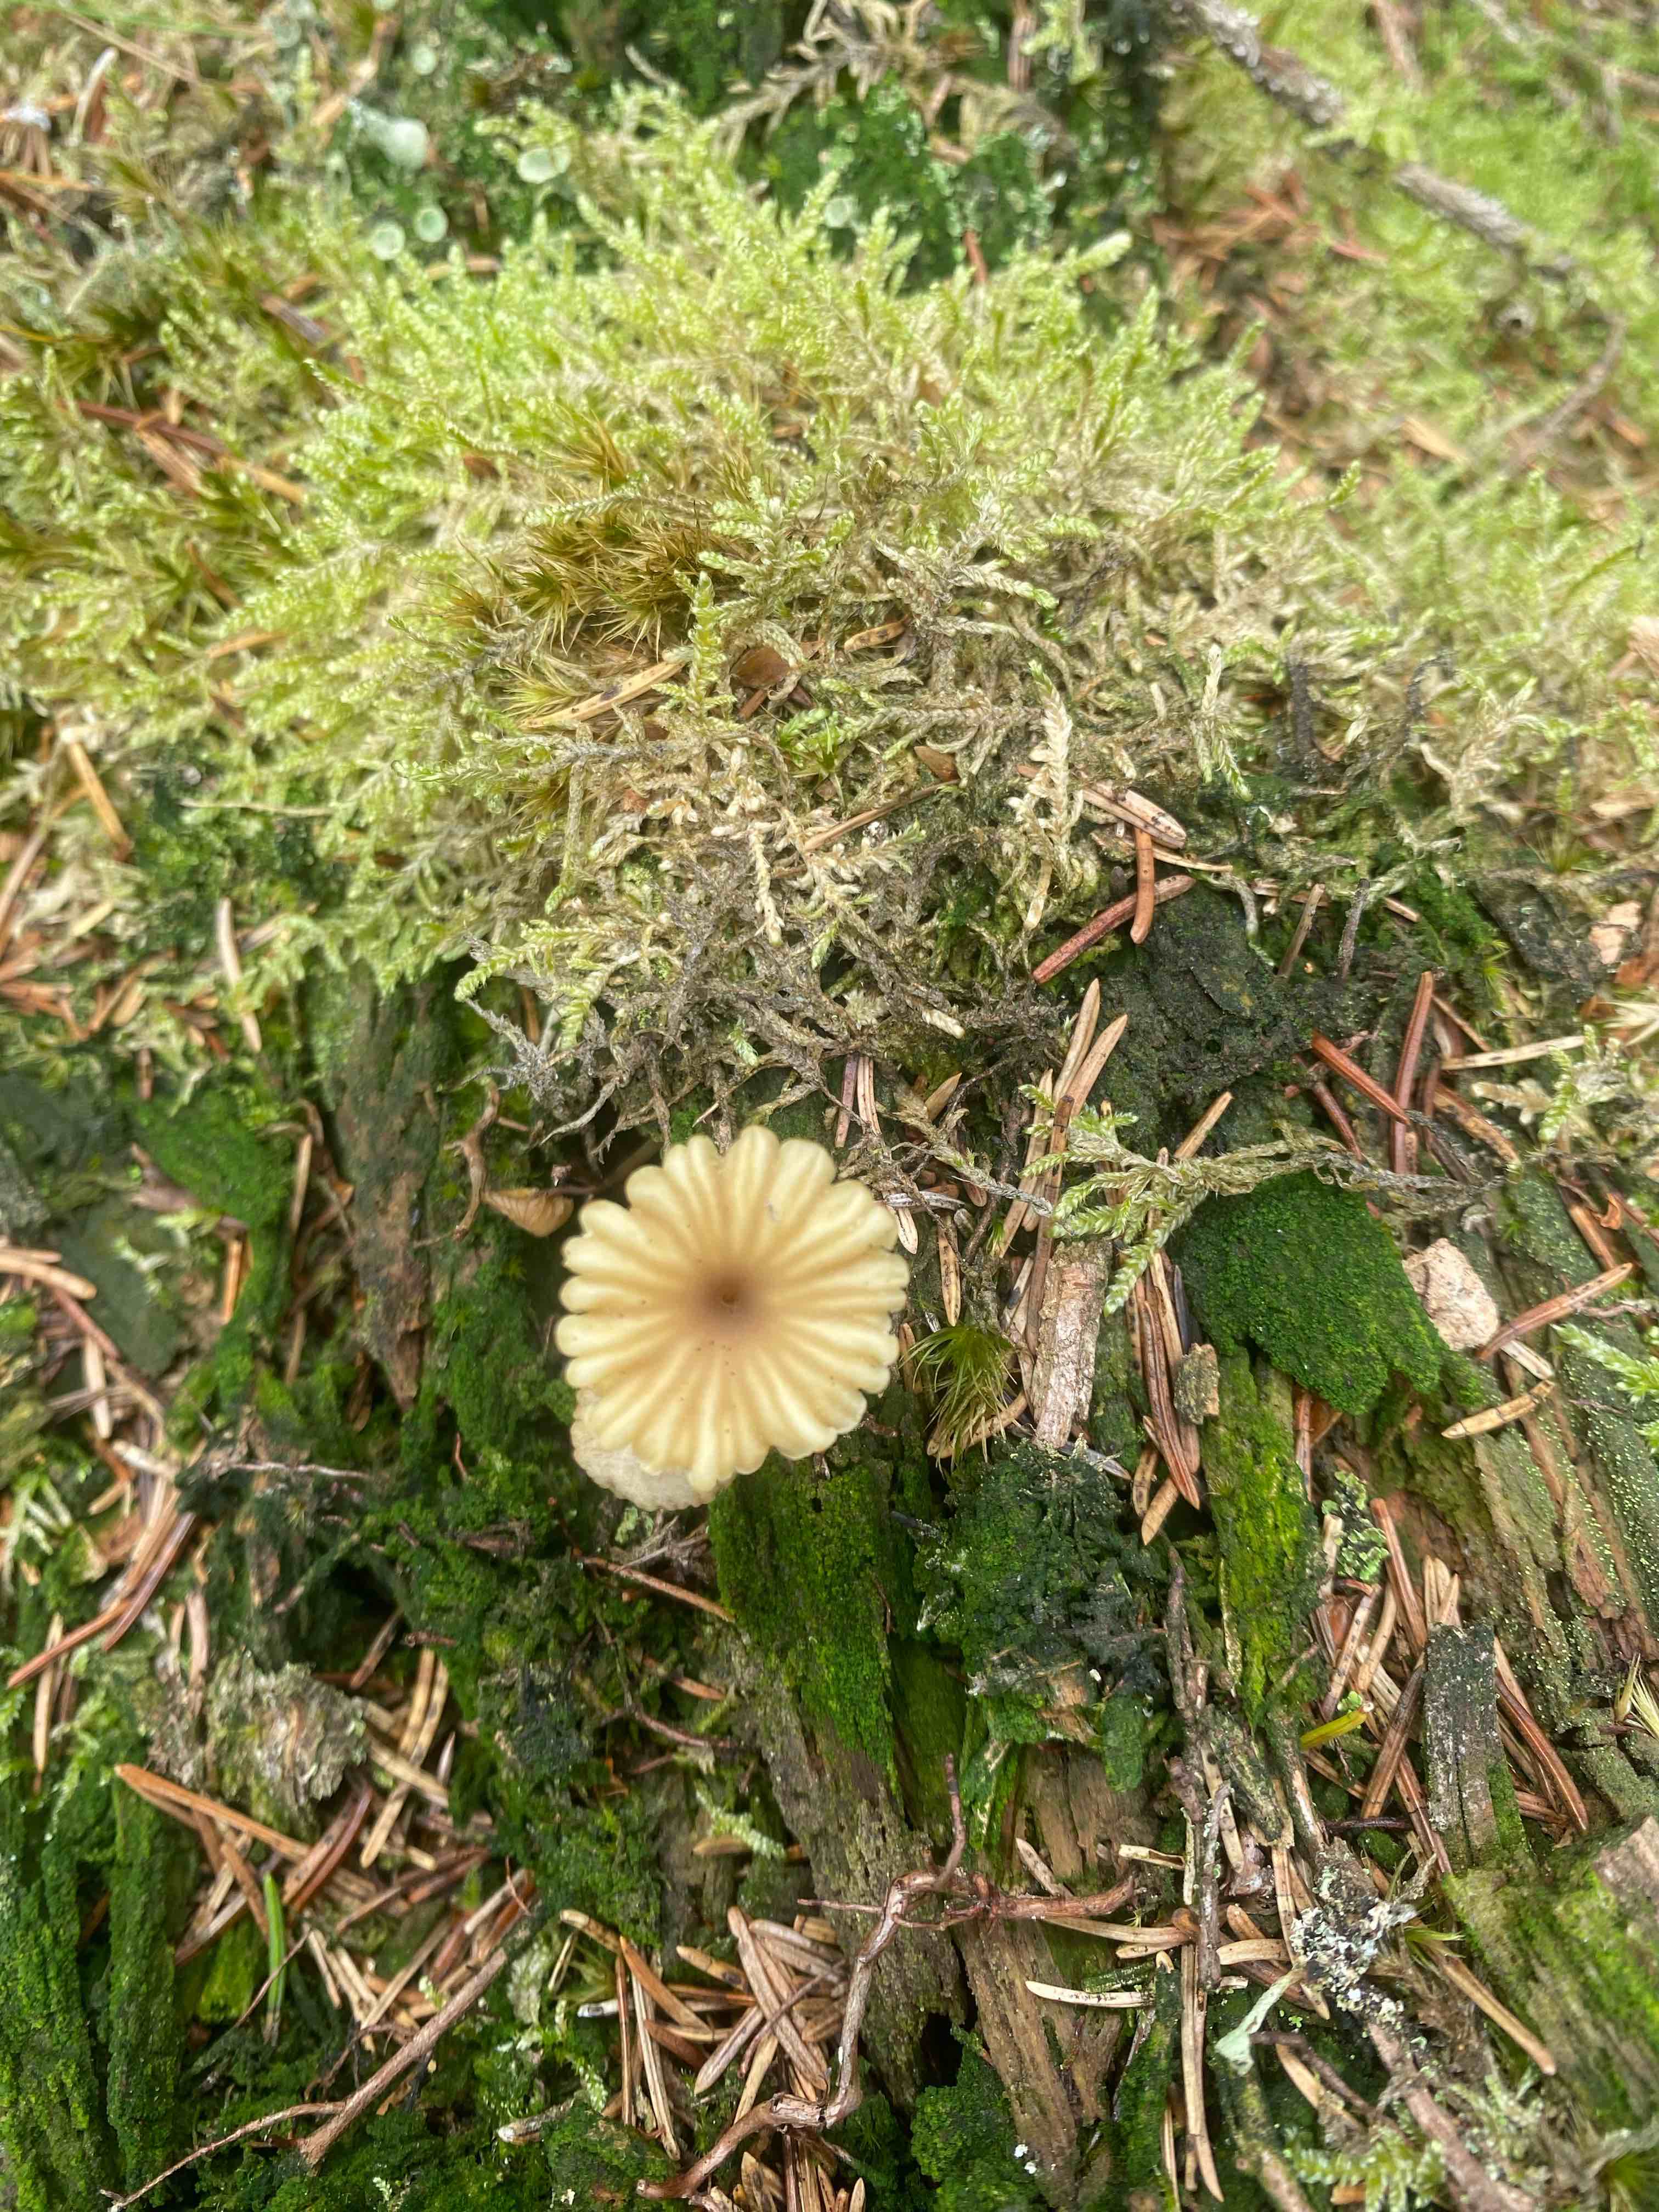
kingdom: Fungi
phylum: Basidiomycota
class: Agaricomycetes
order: Agaricales
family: Hygrophoraceae
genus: Lichenomphalia
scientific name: Lichenomphalia umbellifera
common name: tørve-lavhat
